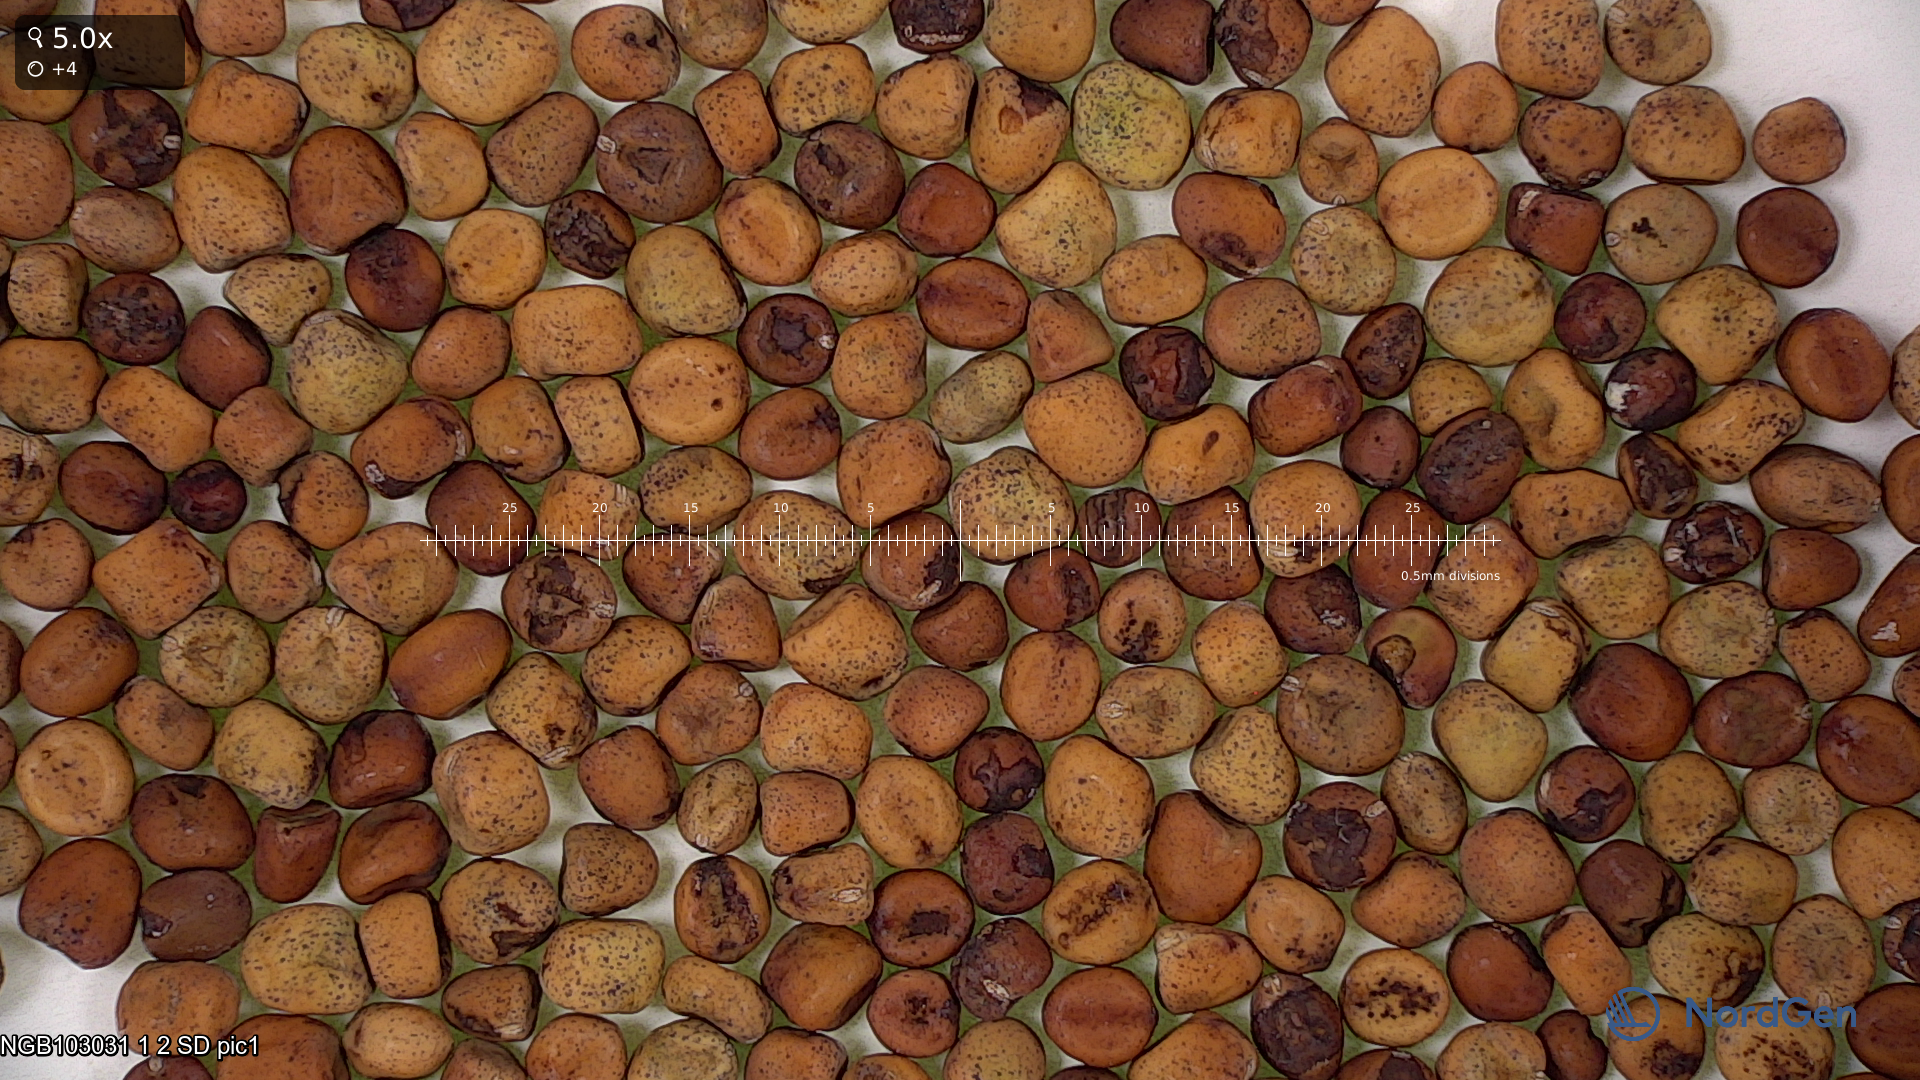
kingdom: Plantae
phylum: Tracheophyta
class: Magnoliopsida
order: Fabales
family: Fabaceae
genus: Lathyrus
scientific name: Lathyrus oleraceus
